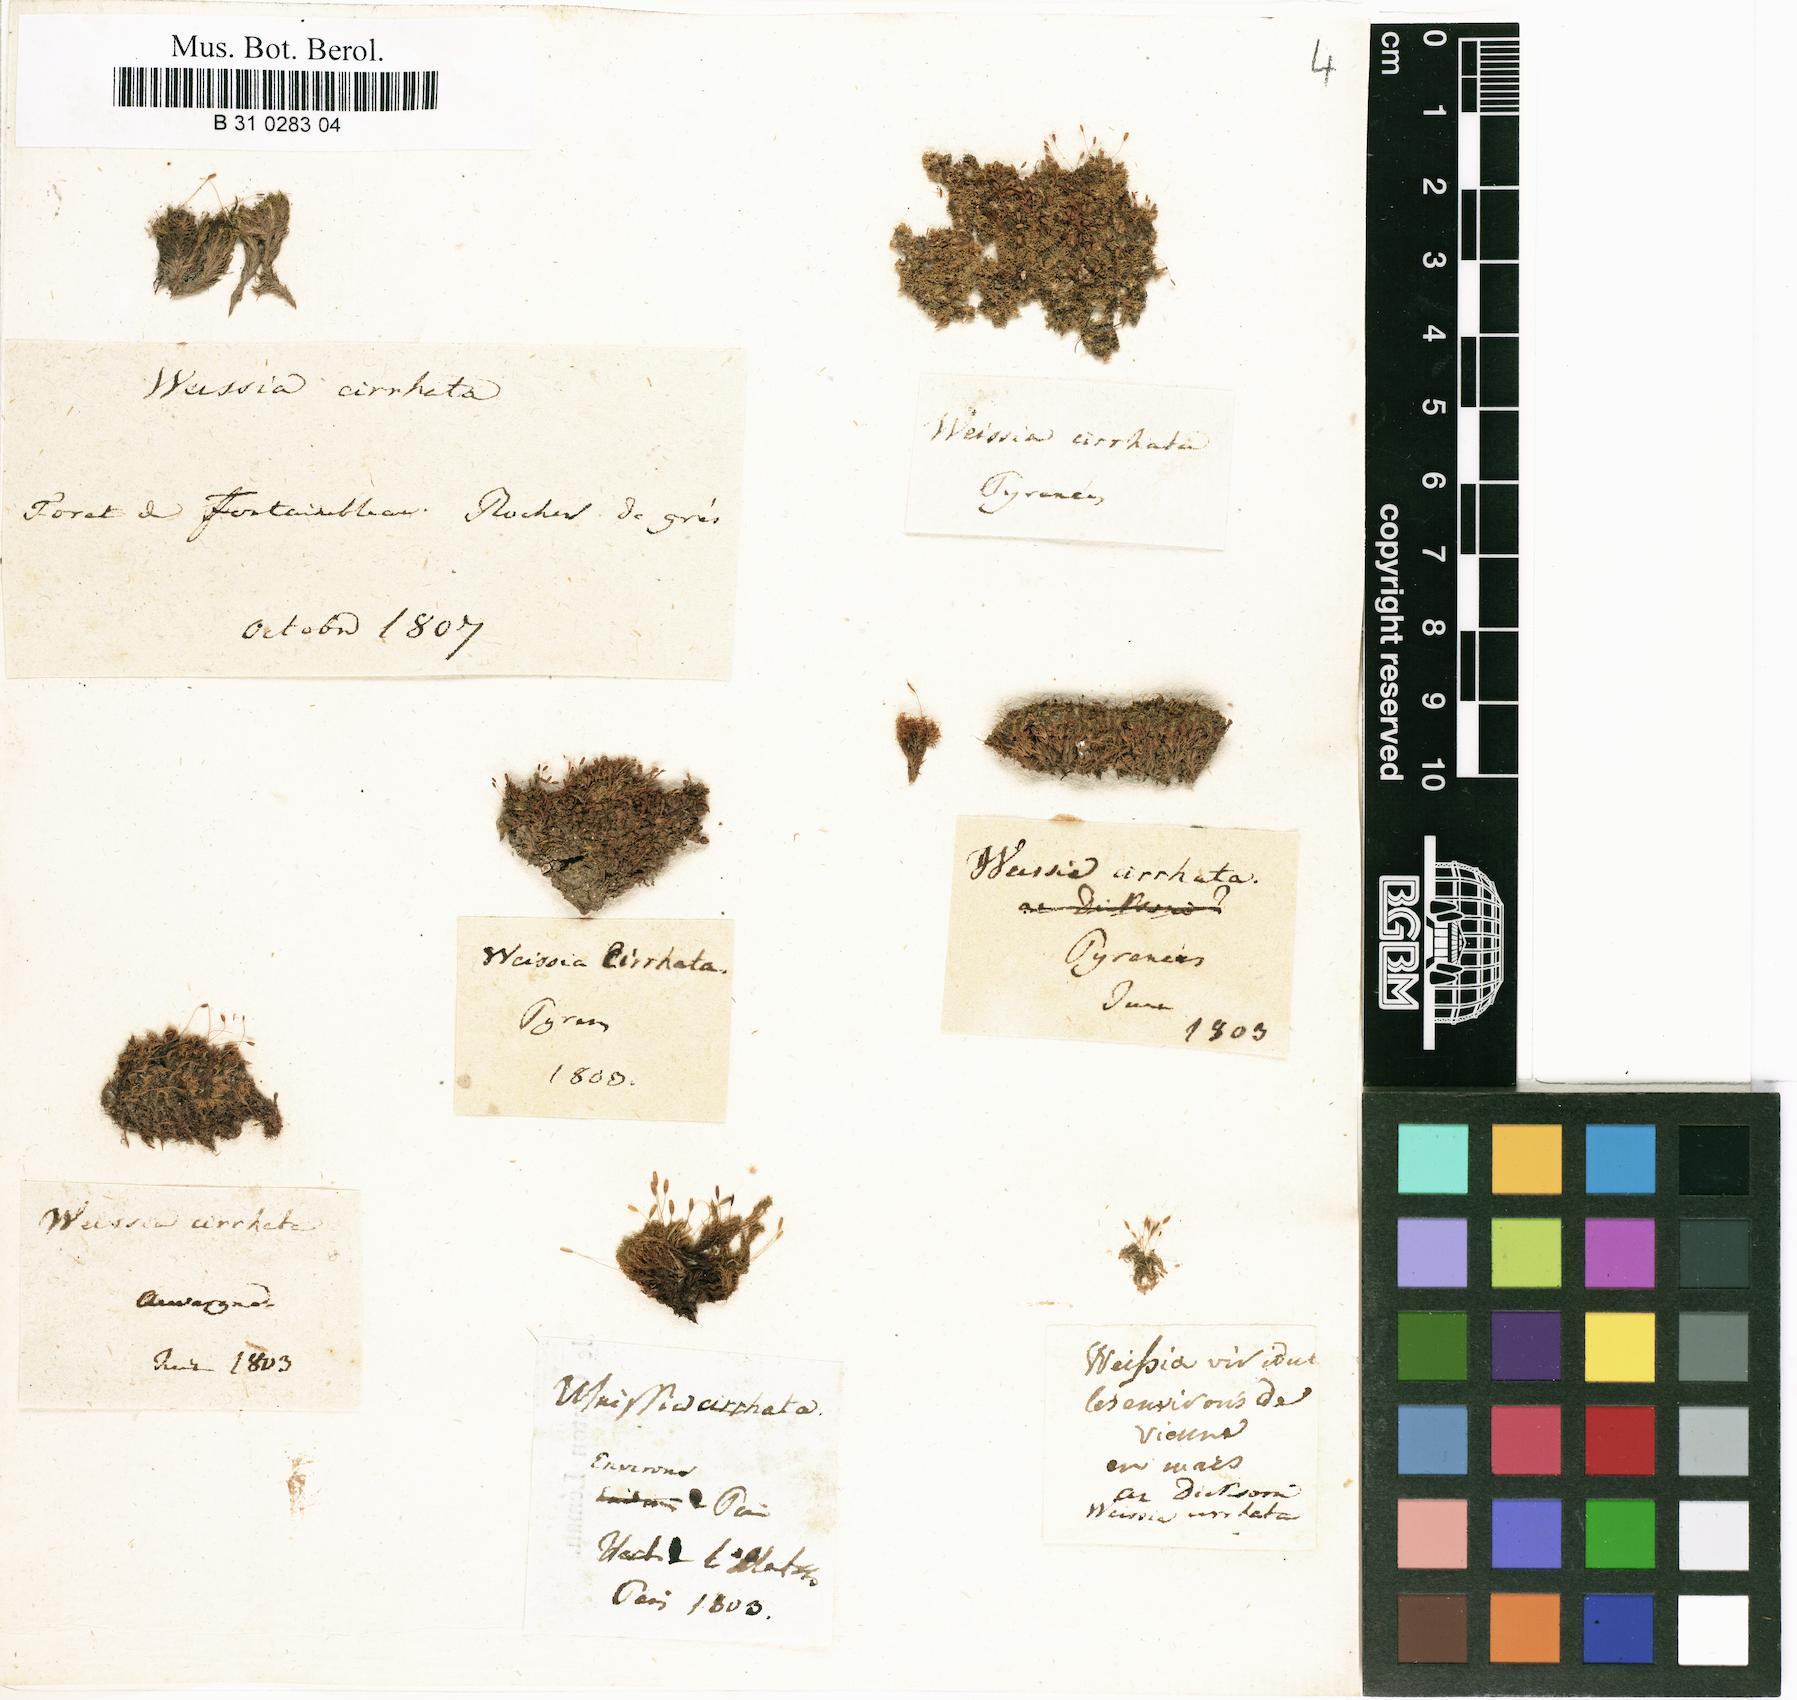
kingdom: Plantae
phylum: Bryophyta
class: Bryopsida
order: Dicranales
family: Rhabdoweisiaceae
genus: Dicranoweisia
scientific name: Dicranoweisia cirrata
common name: Common pincushion
